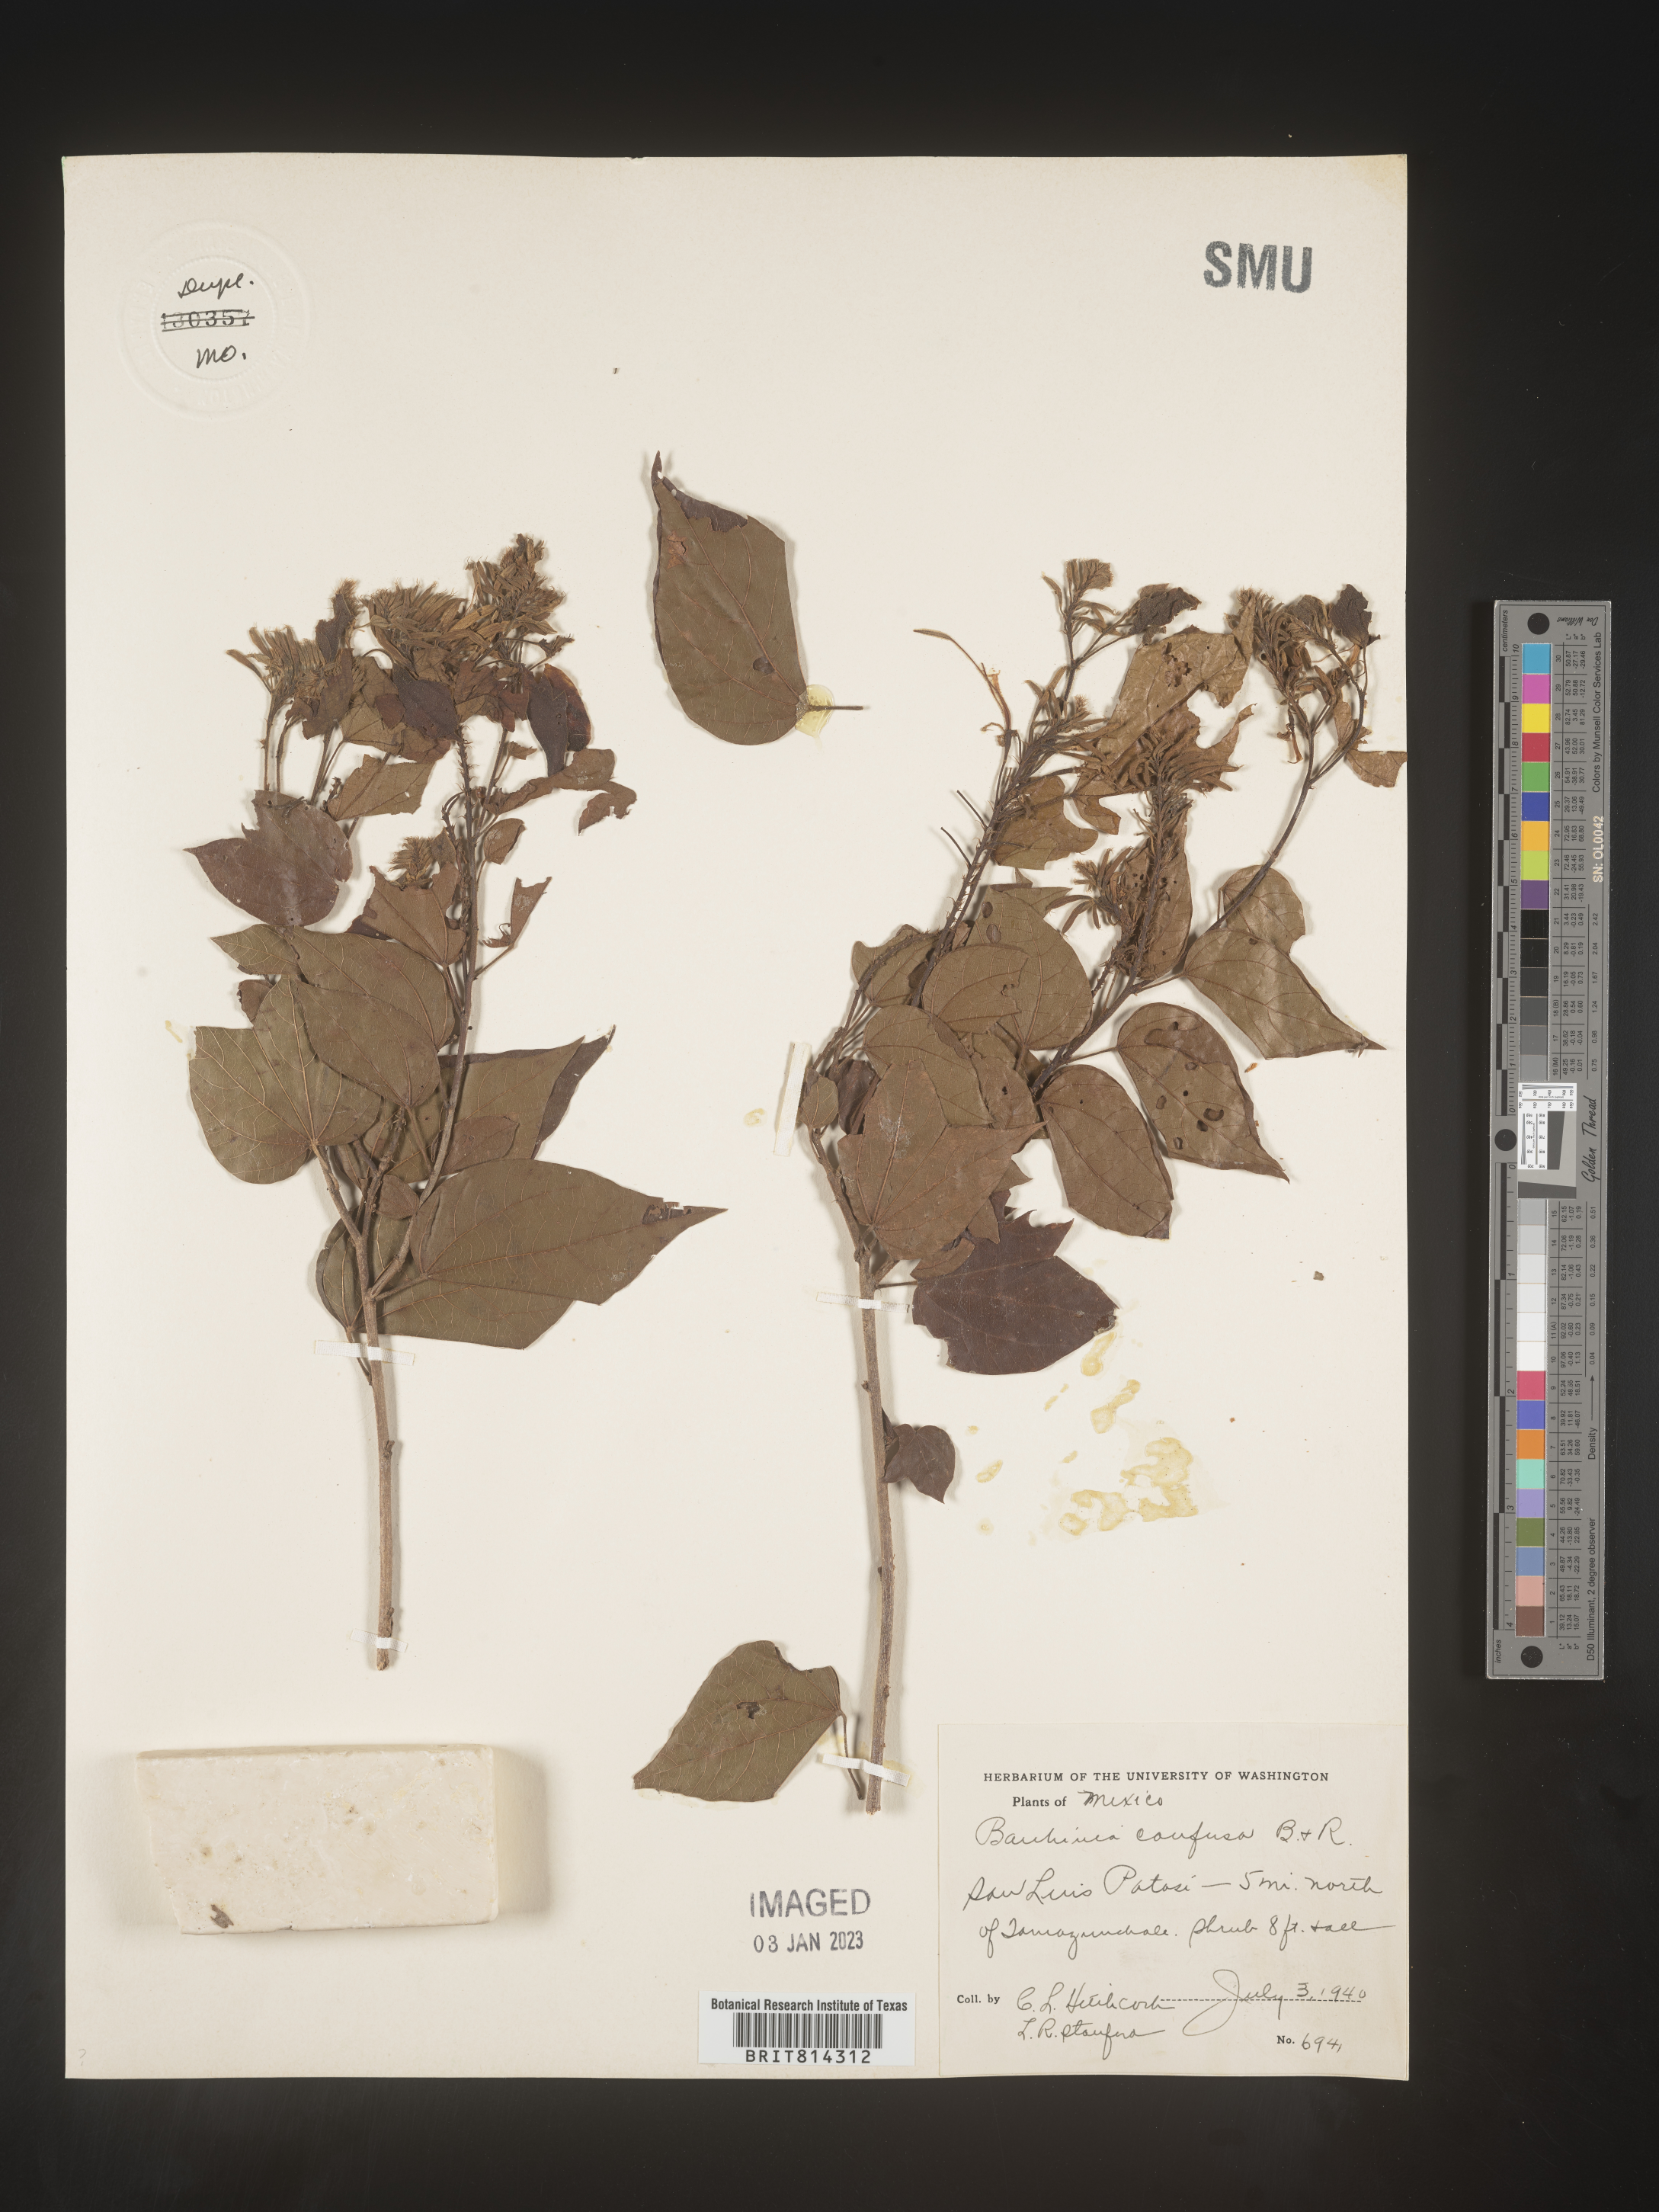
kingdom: Plantae
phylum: Tracheophyta
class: Magnoliopsida
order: Fabales
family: Fabaceae
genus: Bauhinia
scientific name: Bauhinia
